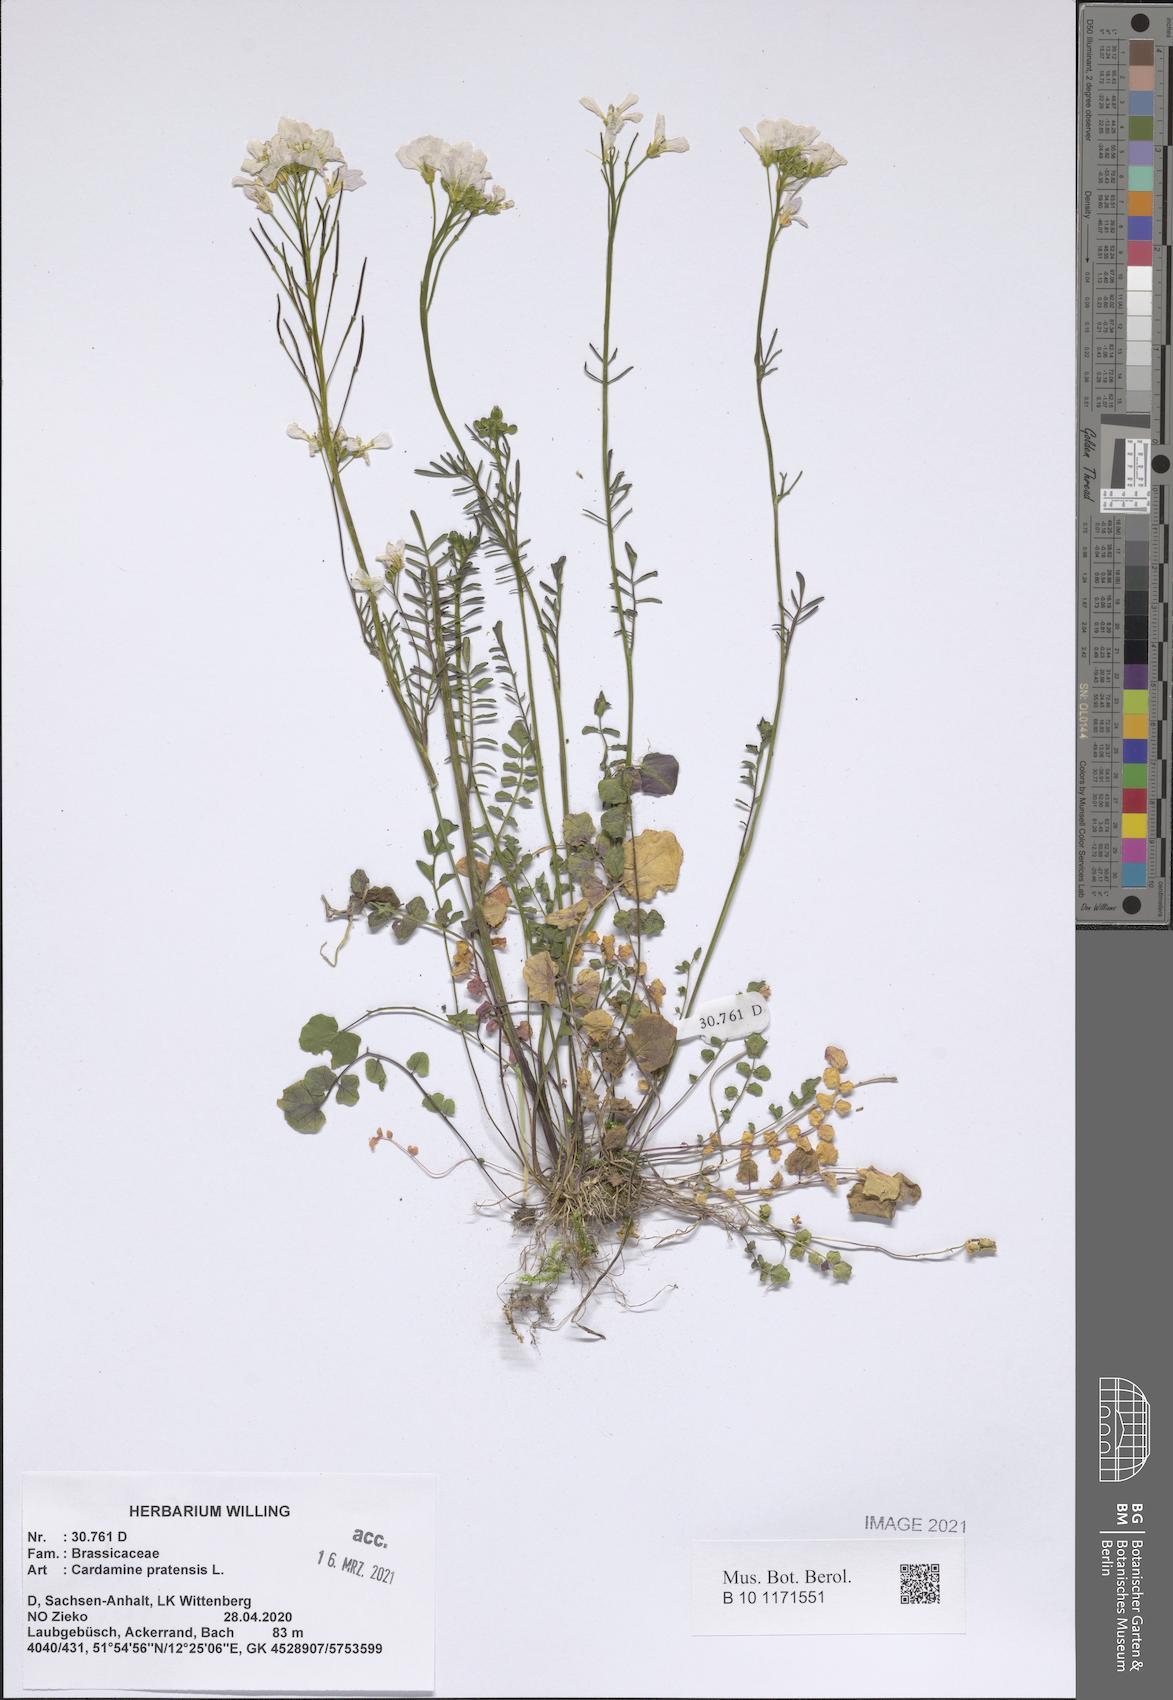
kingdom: Plantae
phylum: Tracheophyta
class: Magnoliopsida
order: Brassicales
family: Brassicaceae
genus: Cardamine
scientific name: Cardamine pratensis
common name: Cuckoo flower
